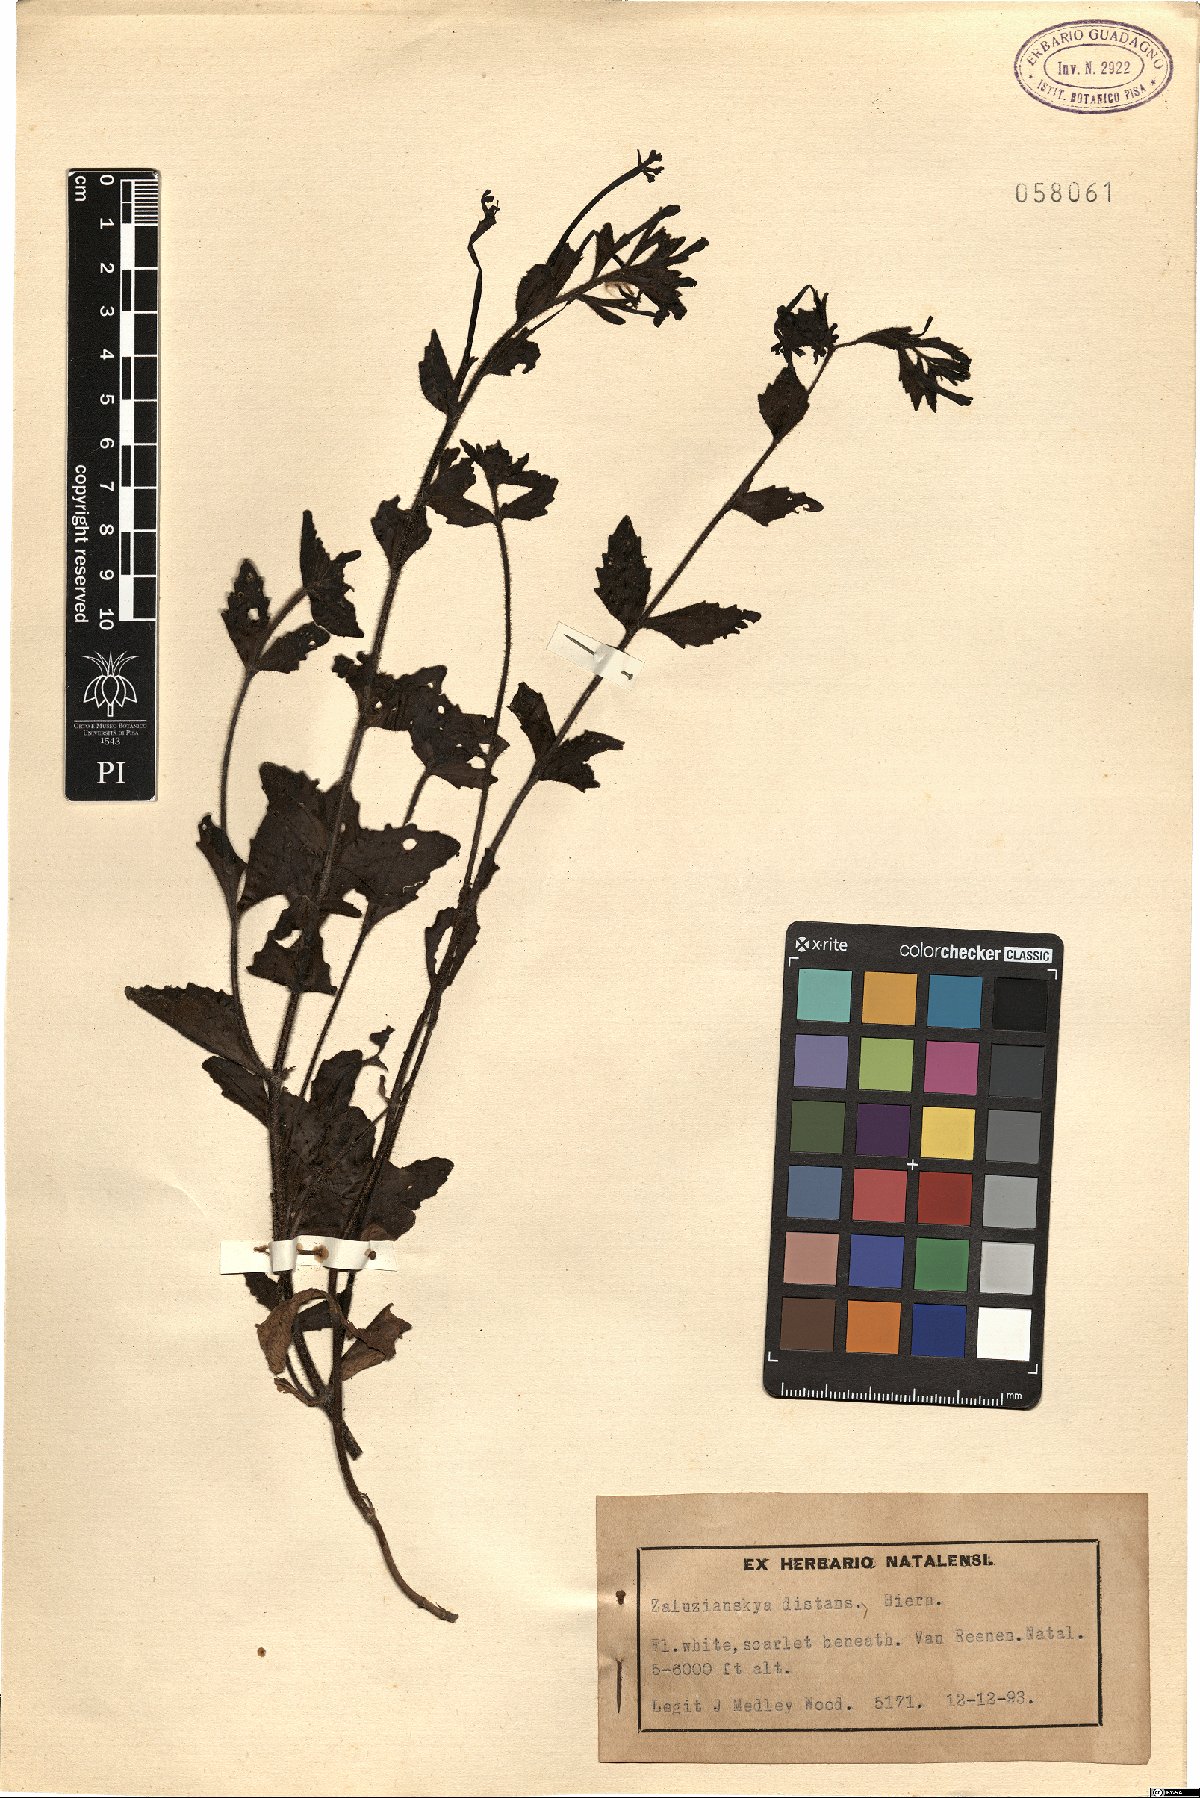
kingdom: Plantae
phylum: Tracheophyta
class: Magnoliopsida
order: Lamiales
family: Scrophulariaceae
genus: Zaluzianskya
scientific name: Zaluzianskya distans
